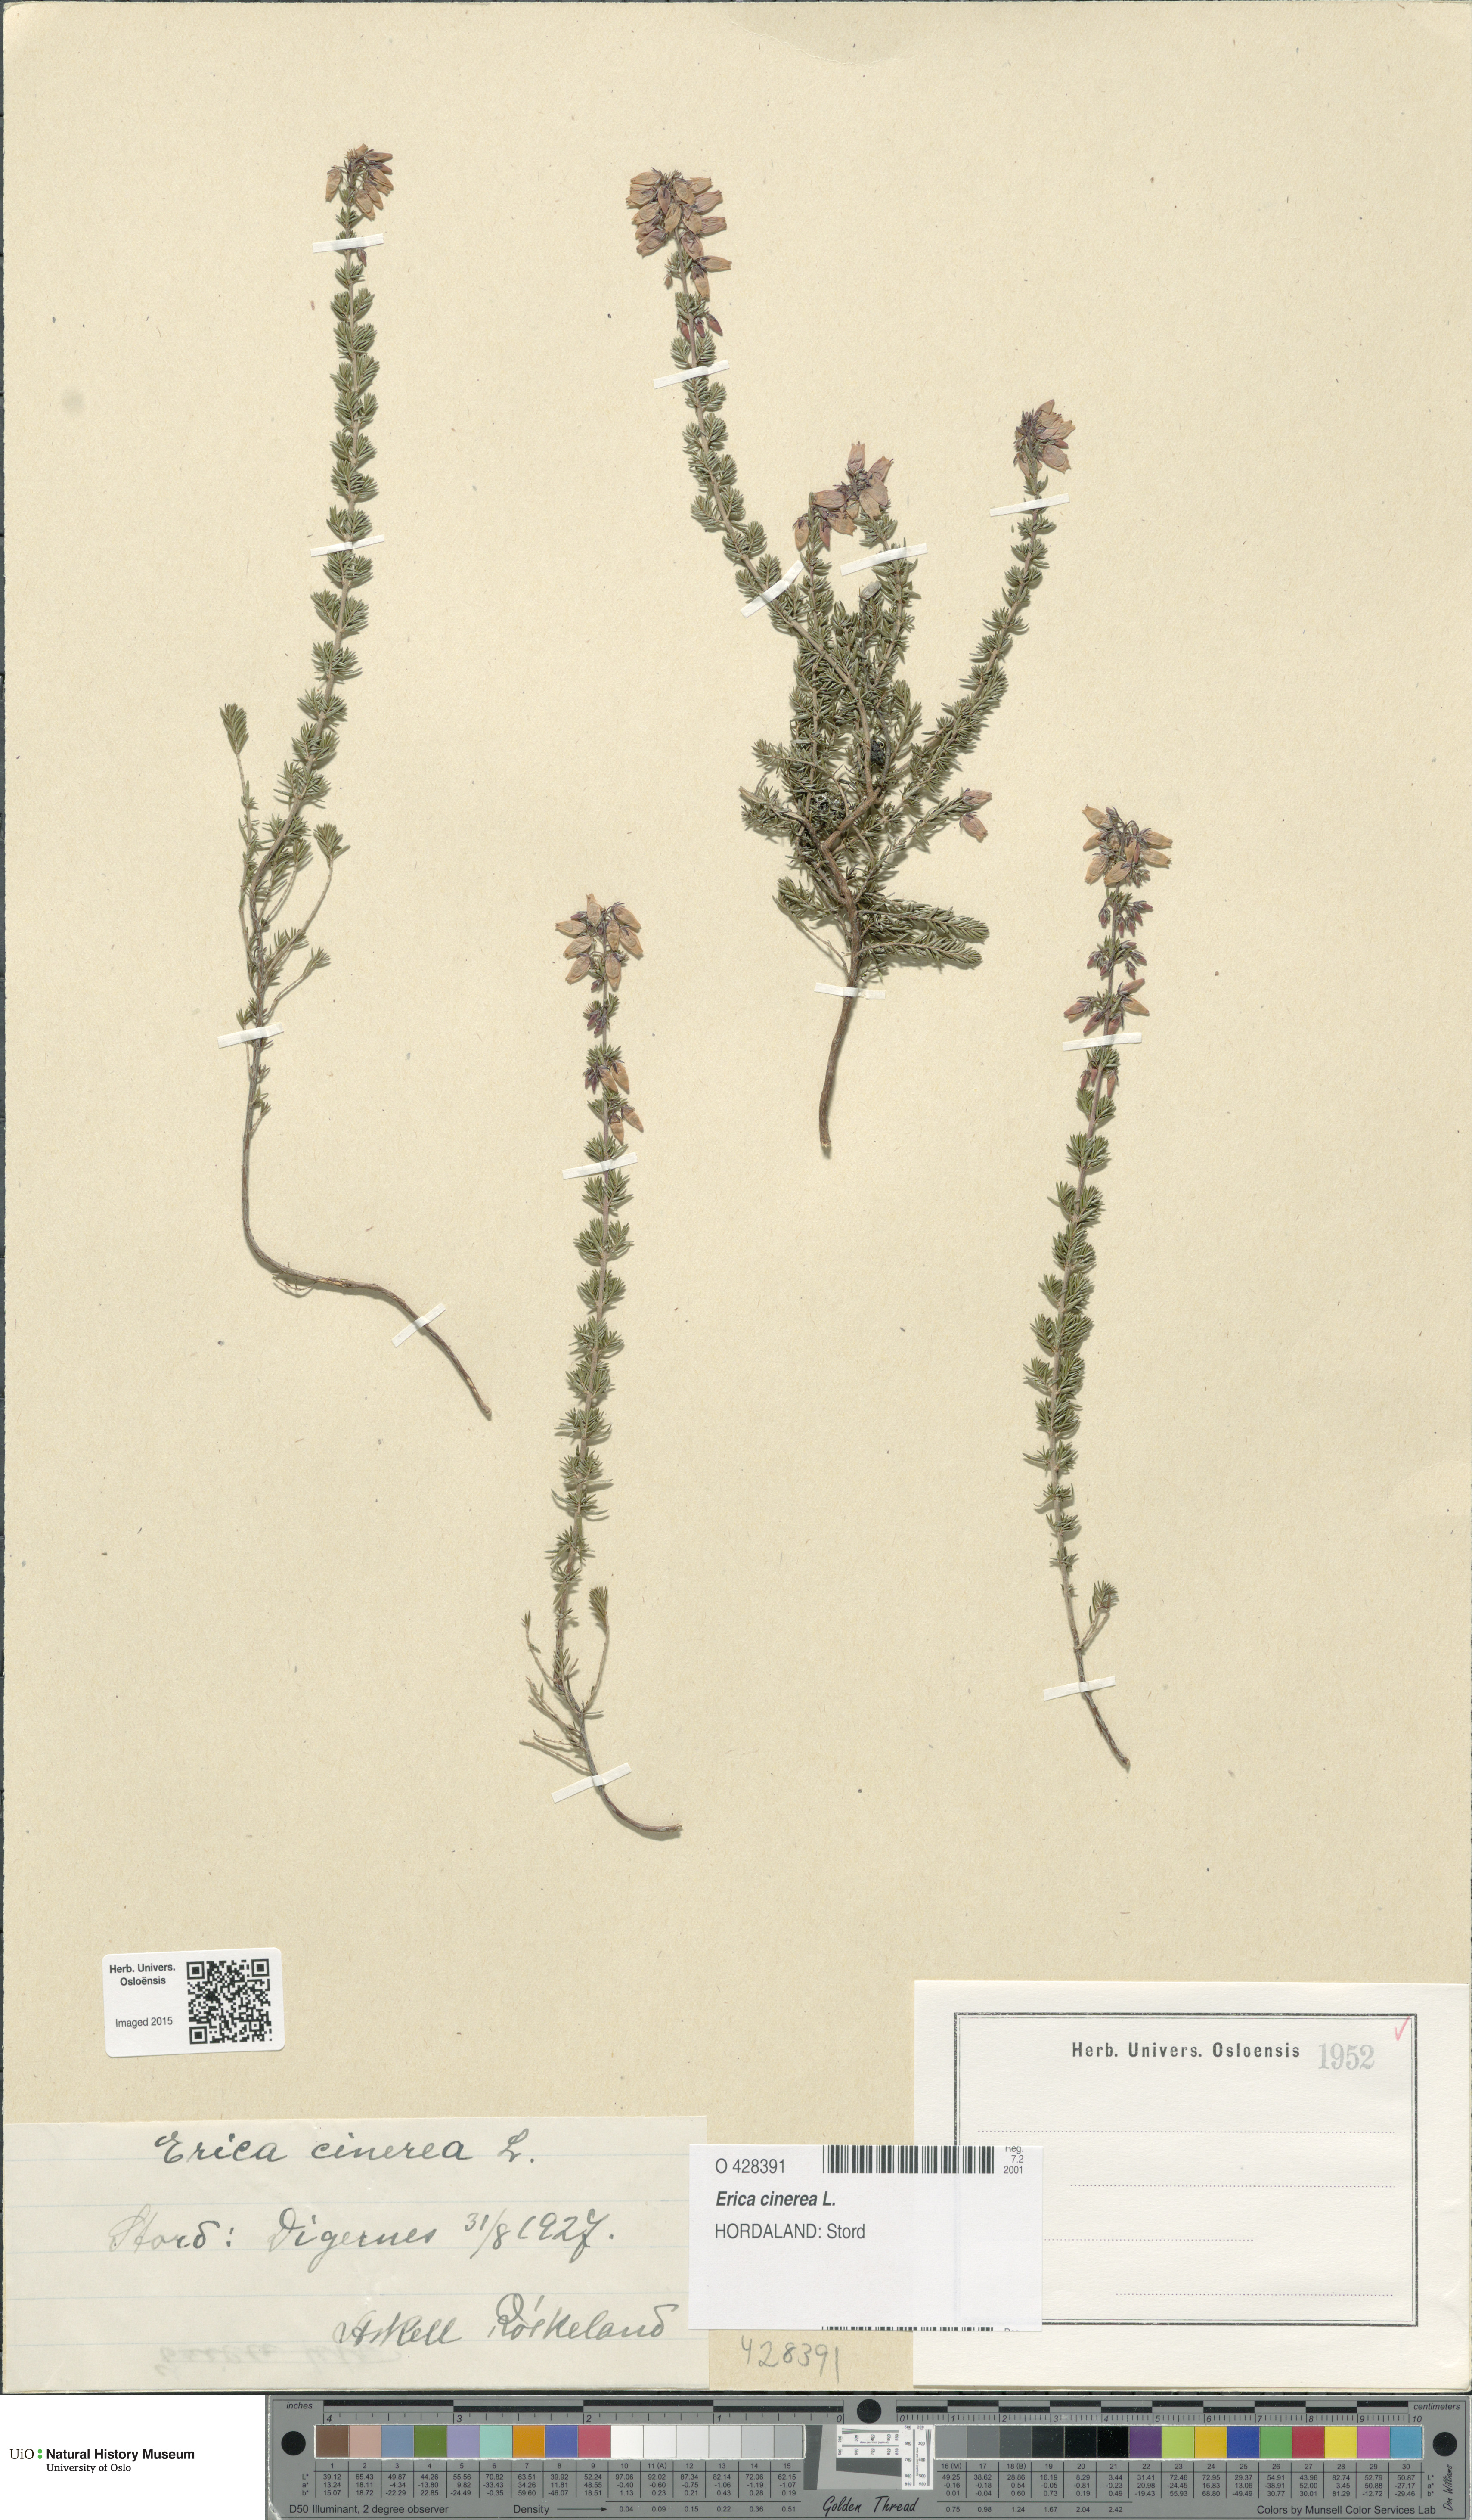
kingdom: Plantae
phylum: Tracheophyta
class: Magnoliopsida
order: Ericales
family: Ericaceae
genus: Erica
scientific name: Erica cinerea
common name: Bell heather
